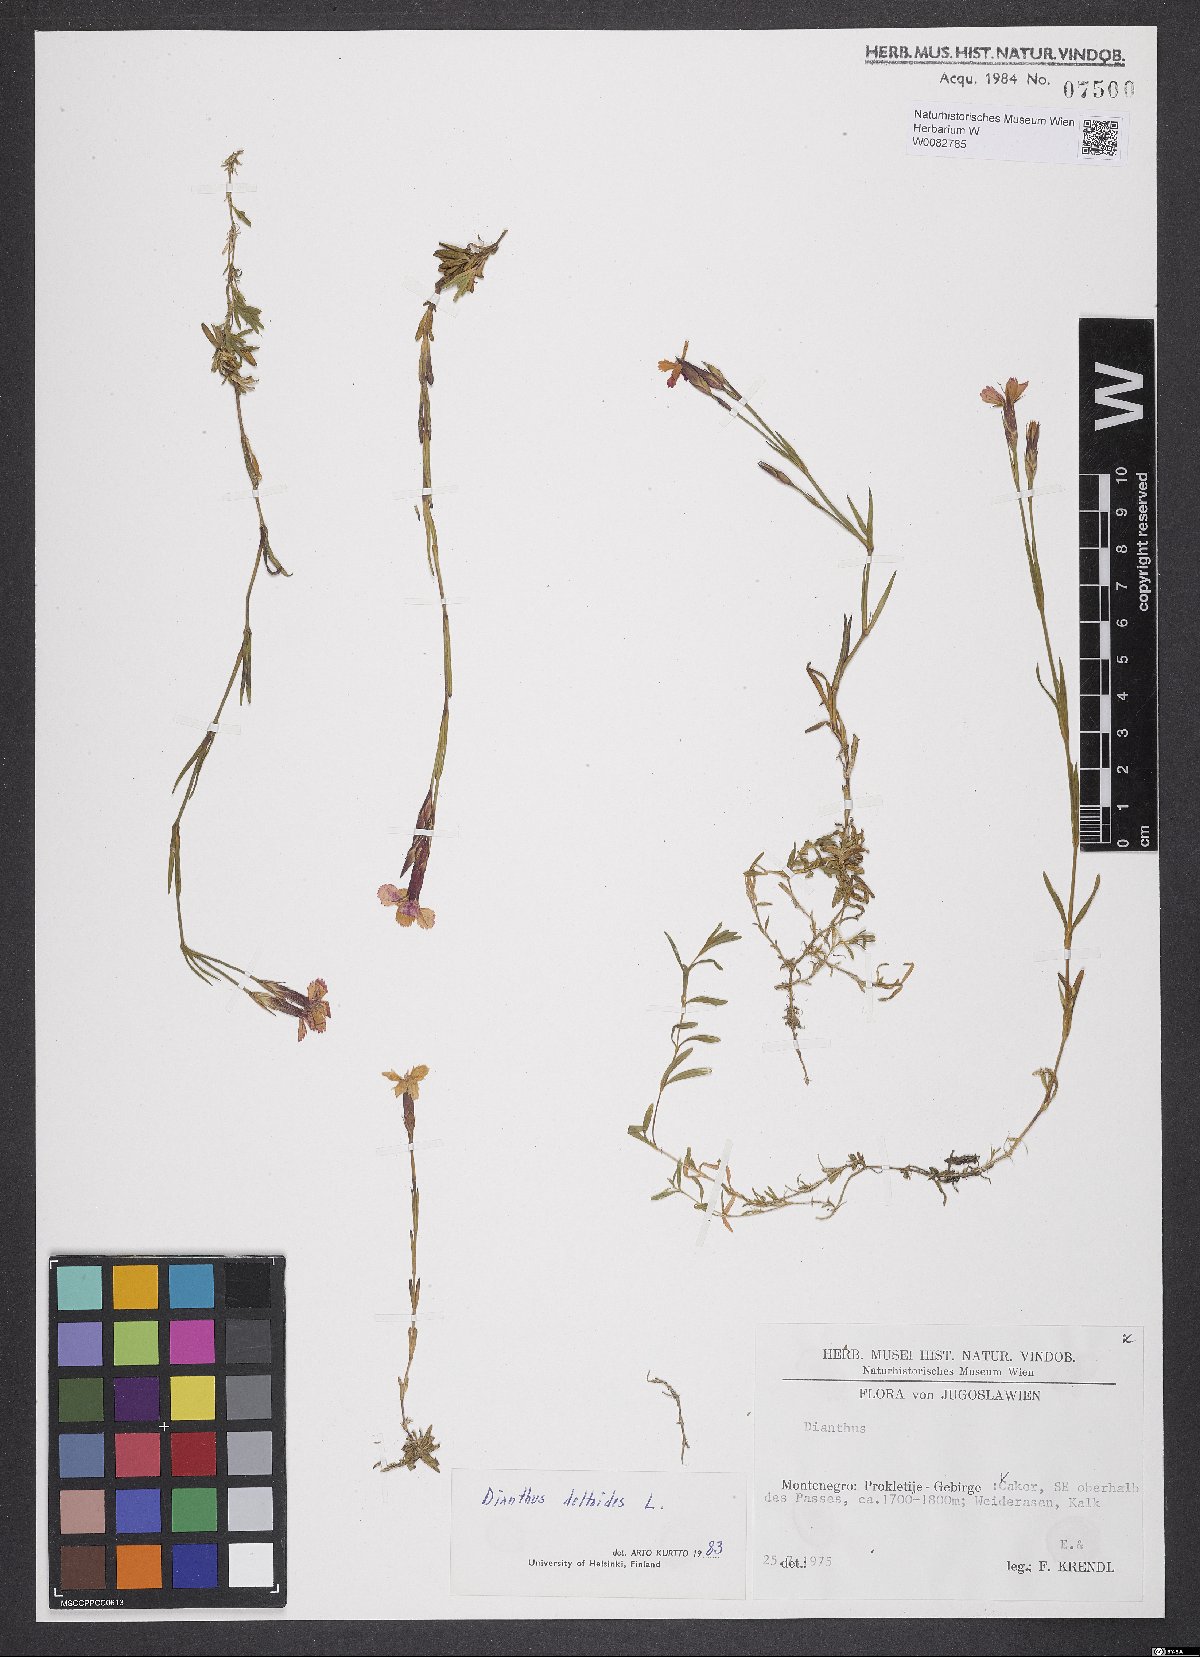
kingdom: Plantae
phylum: Tracheophyta
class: Magnoliopsida
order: Caryophyllales
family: Caryophyllaceae
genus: Dianthus
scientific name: Dianthus deltoides
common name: Maiden pink
